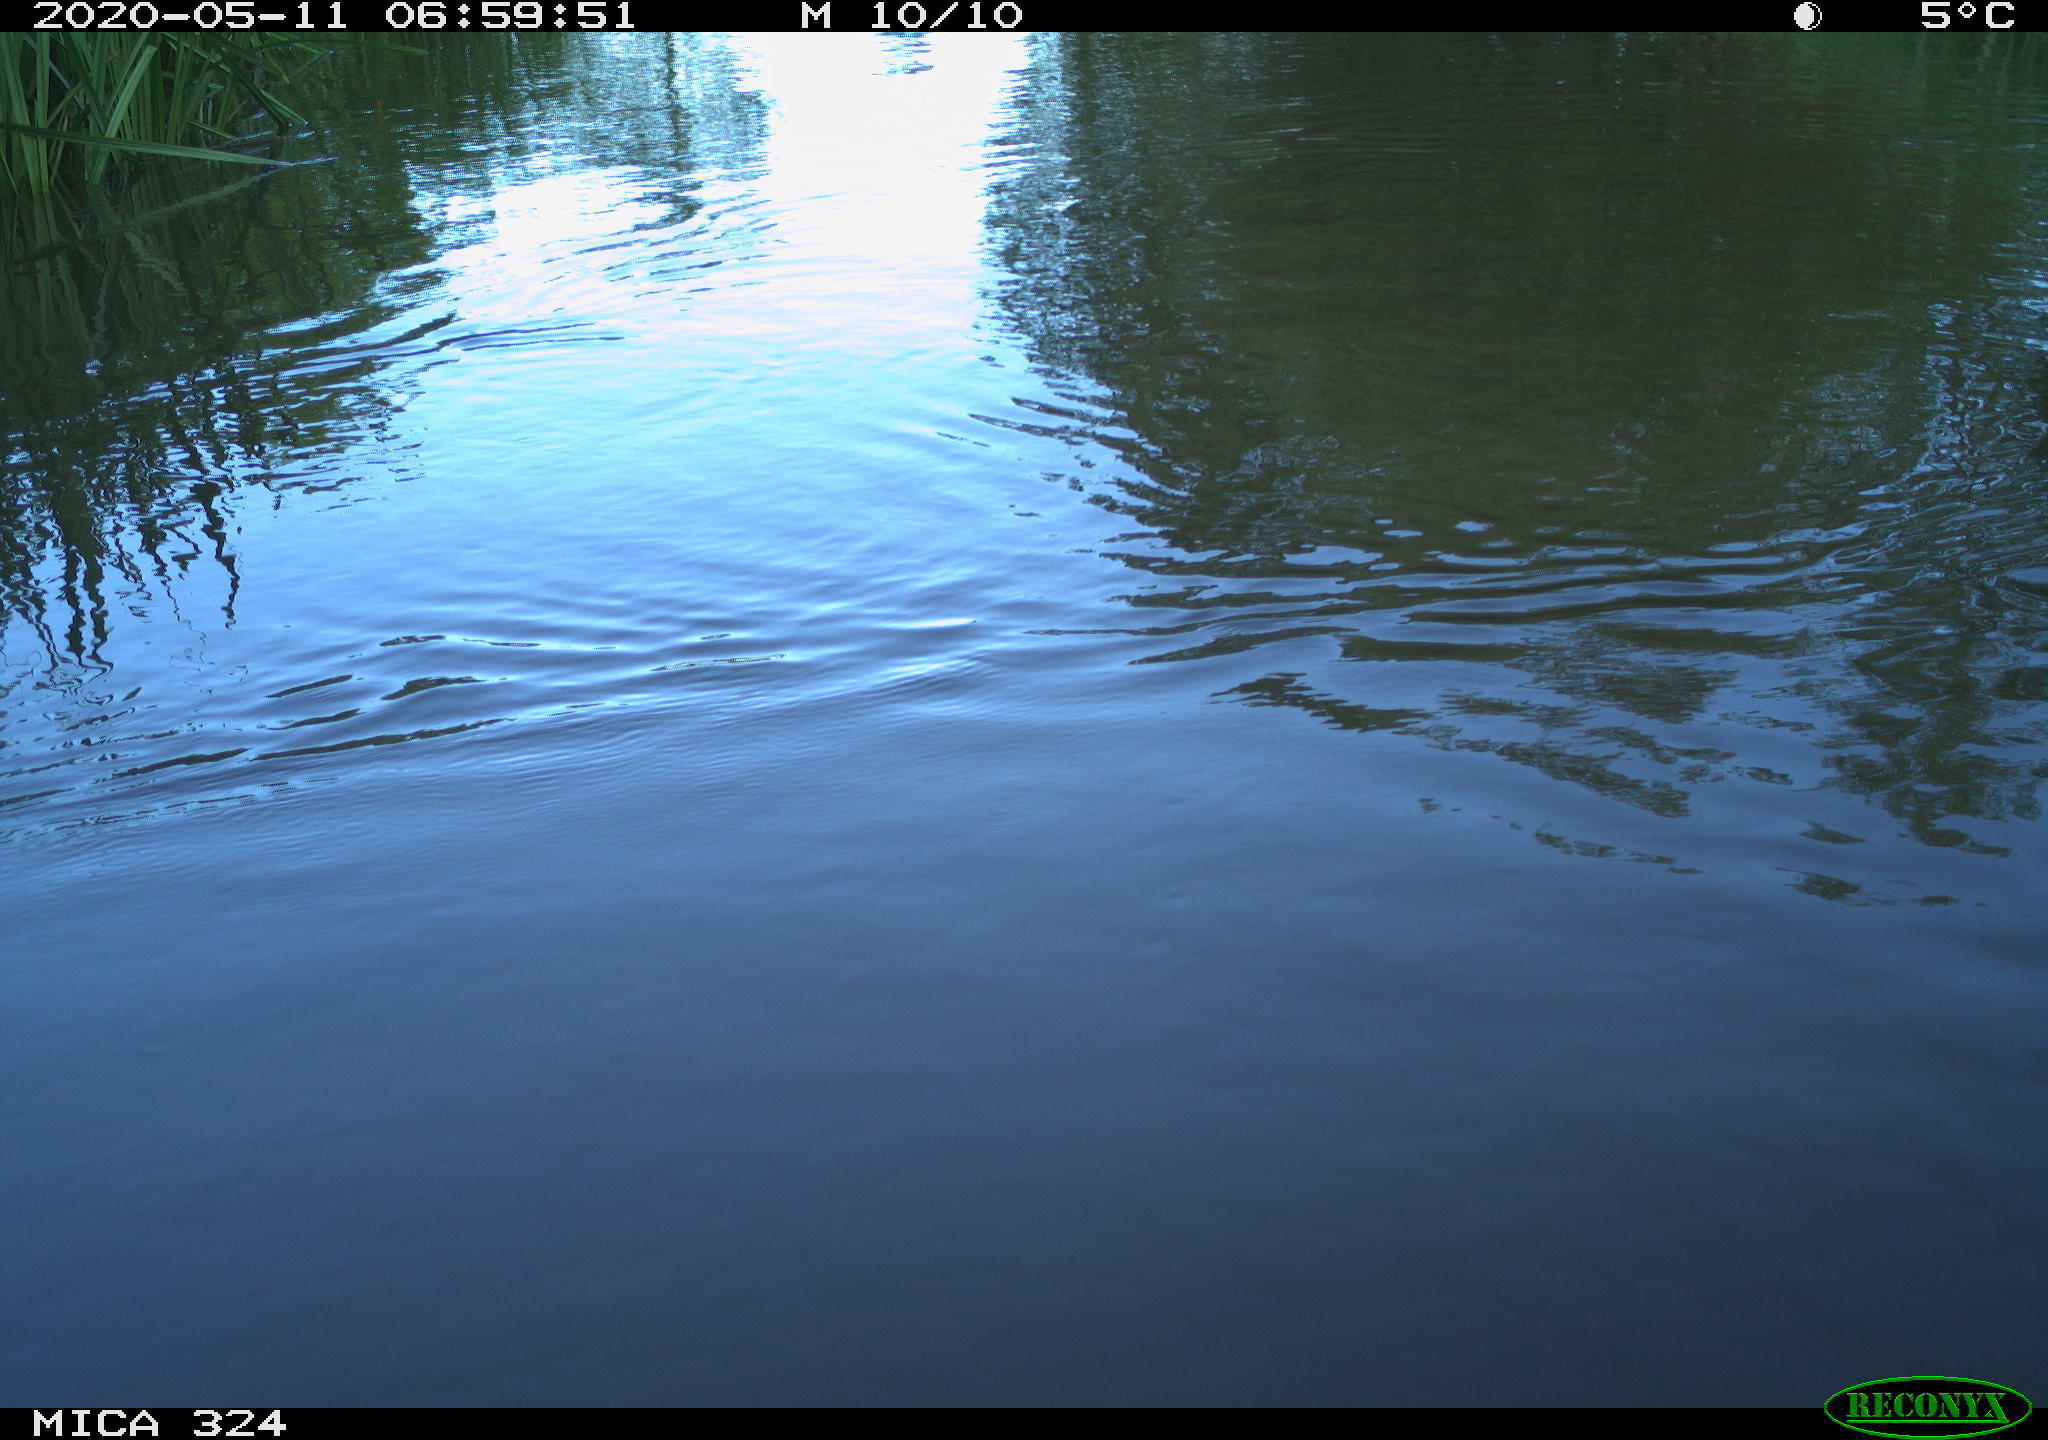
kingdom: Animalia
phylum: Chordata
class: Aves
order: Gruiformes
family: Rallidae
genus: Gallinula
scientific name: Gallinula chloropus
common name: Common moorhen
